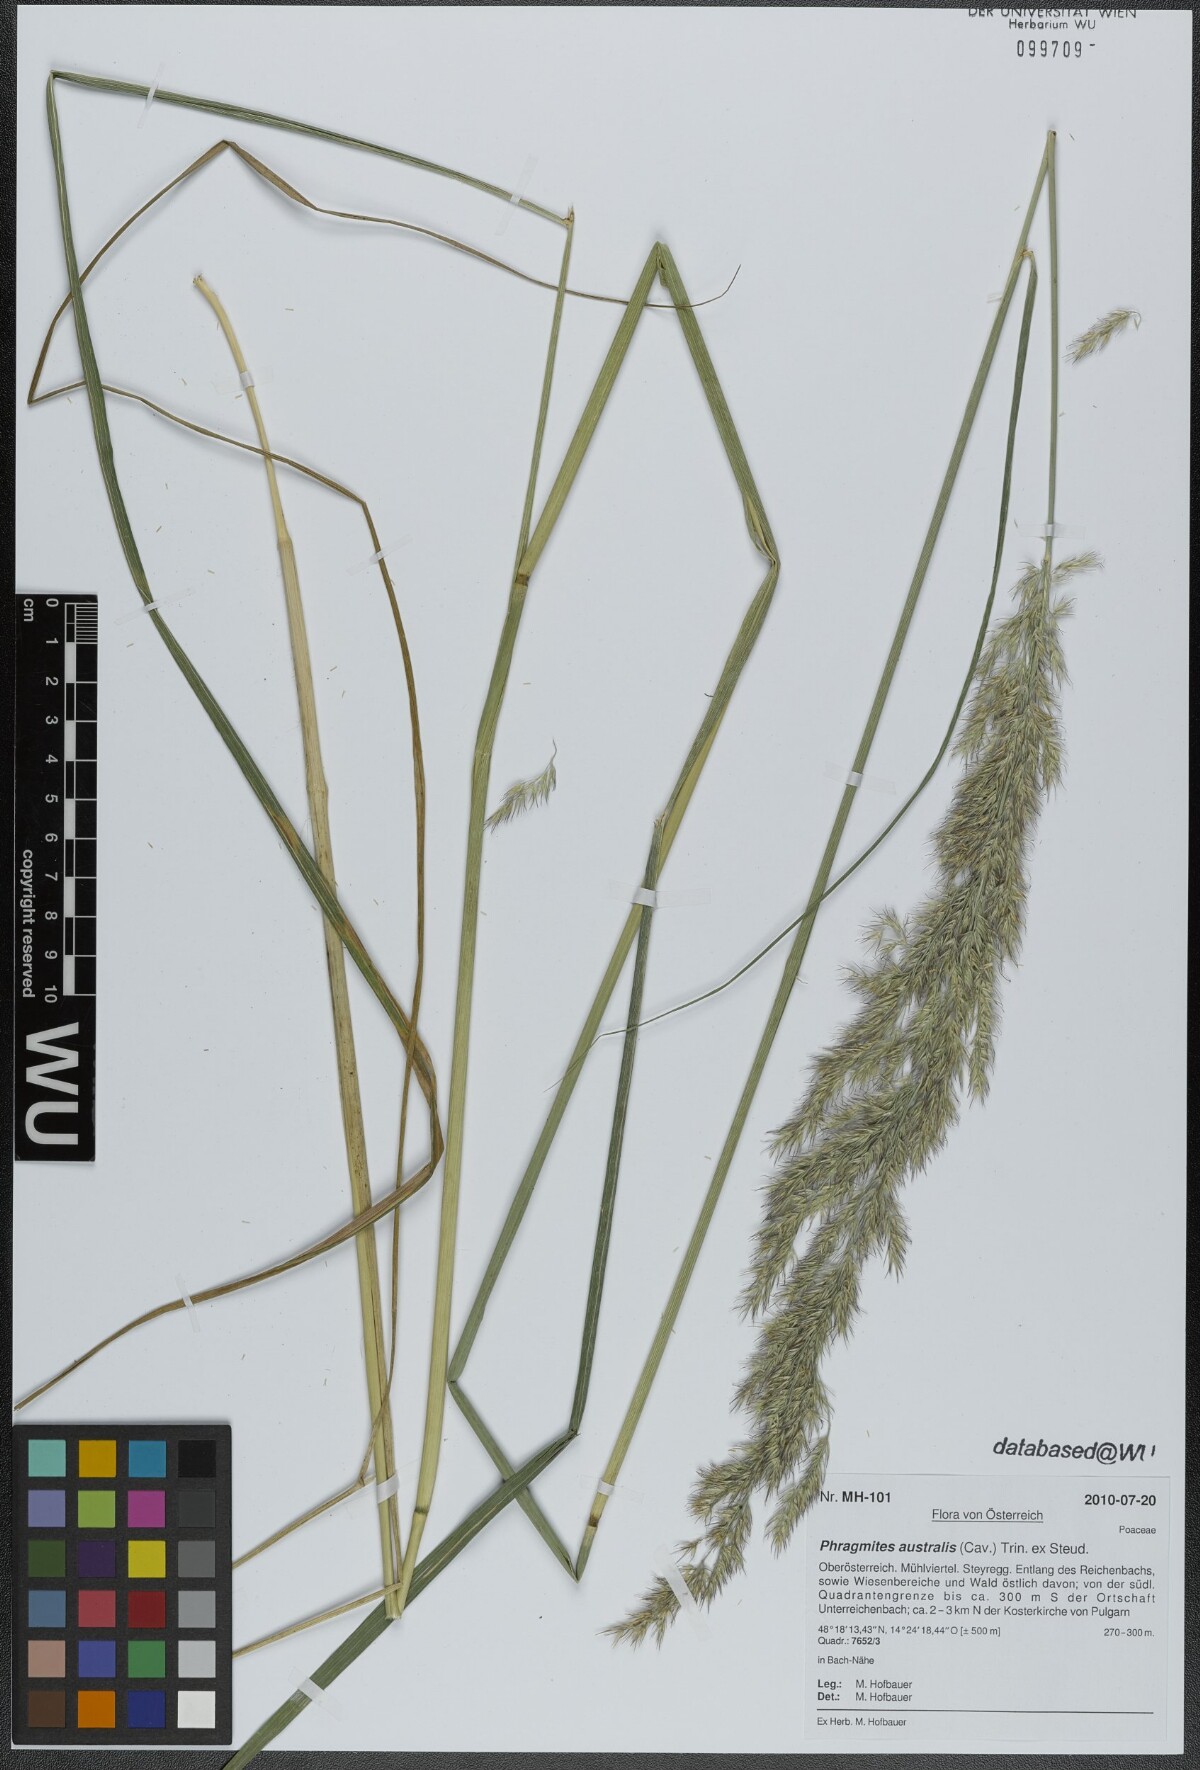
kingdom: Plantae
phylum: Tracheophyta
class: Liliopsida
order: Poales
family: Poaceae
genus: Phragmites
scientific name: Phragmites australis
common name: Common reed
